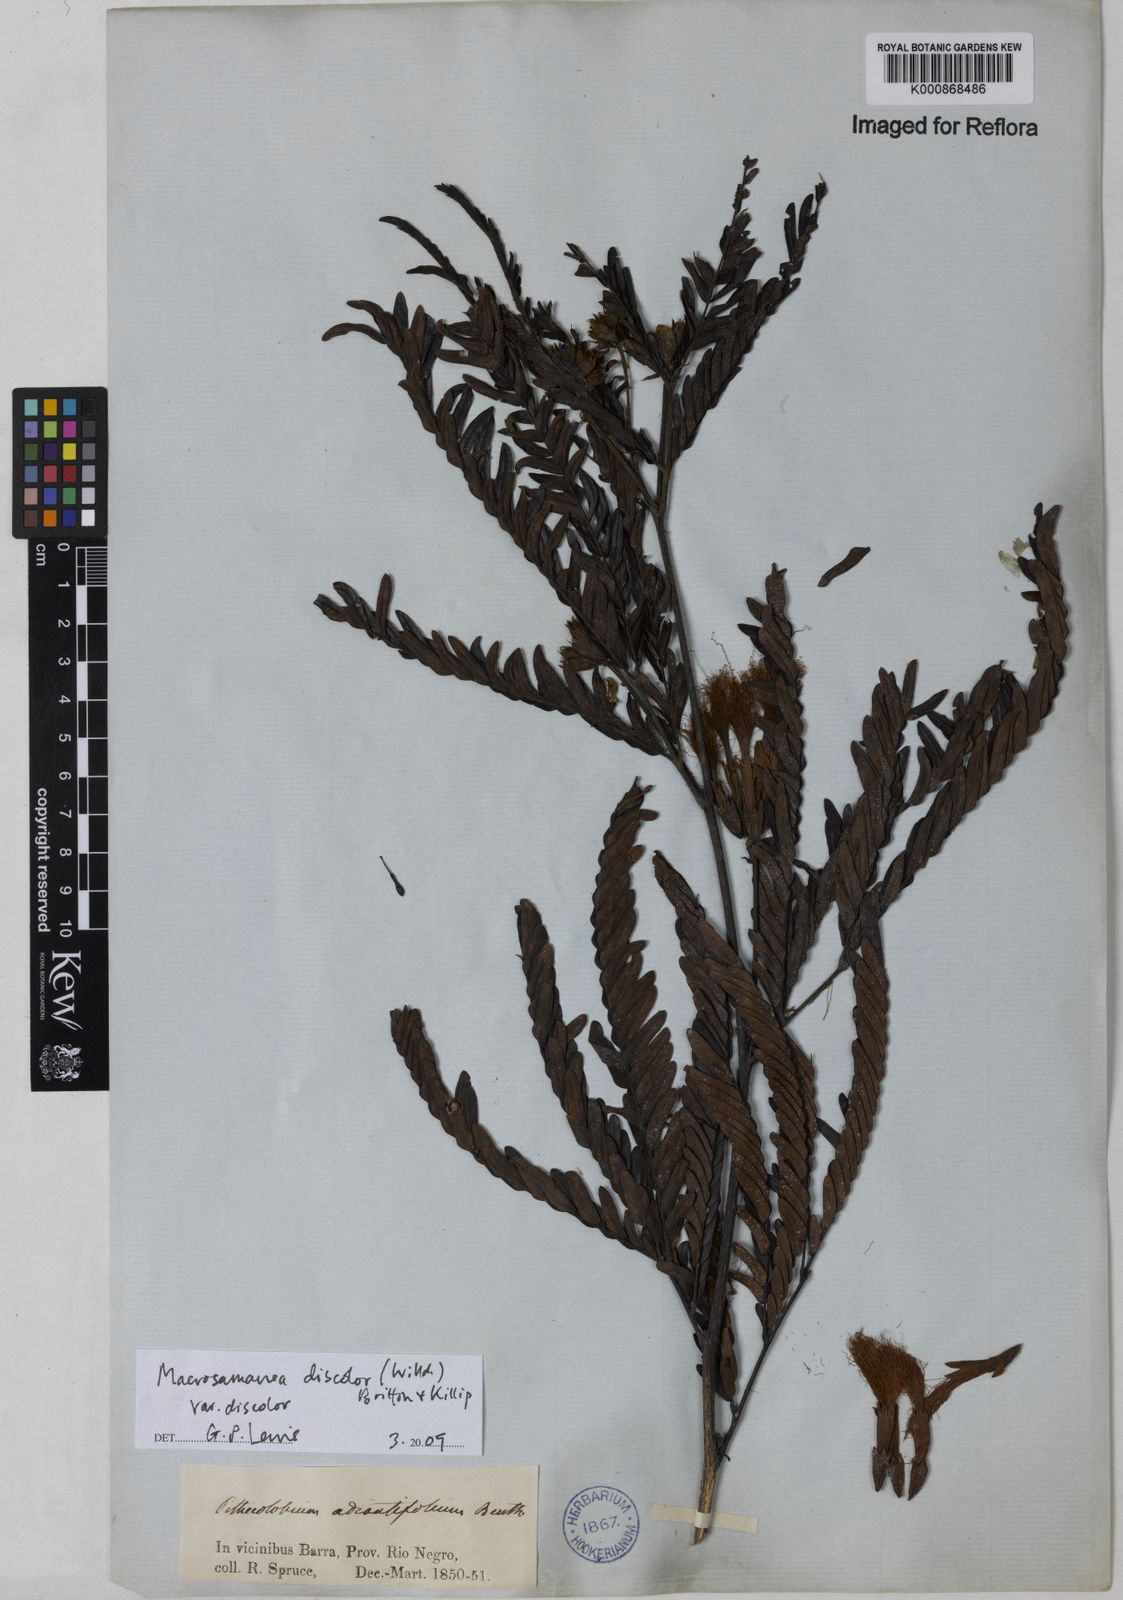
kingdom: Plantae
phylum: Tracheophyta
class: Magnoliopsida
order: Fabales
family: Fabaceae
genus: Macrosamanea
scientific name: Macrosamanea
